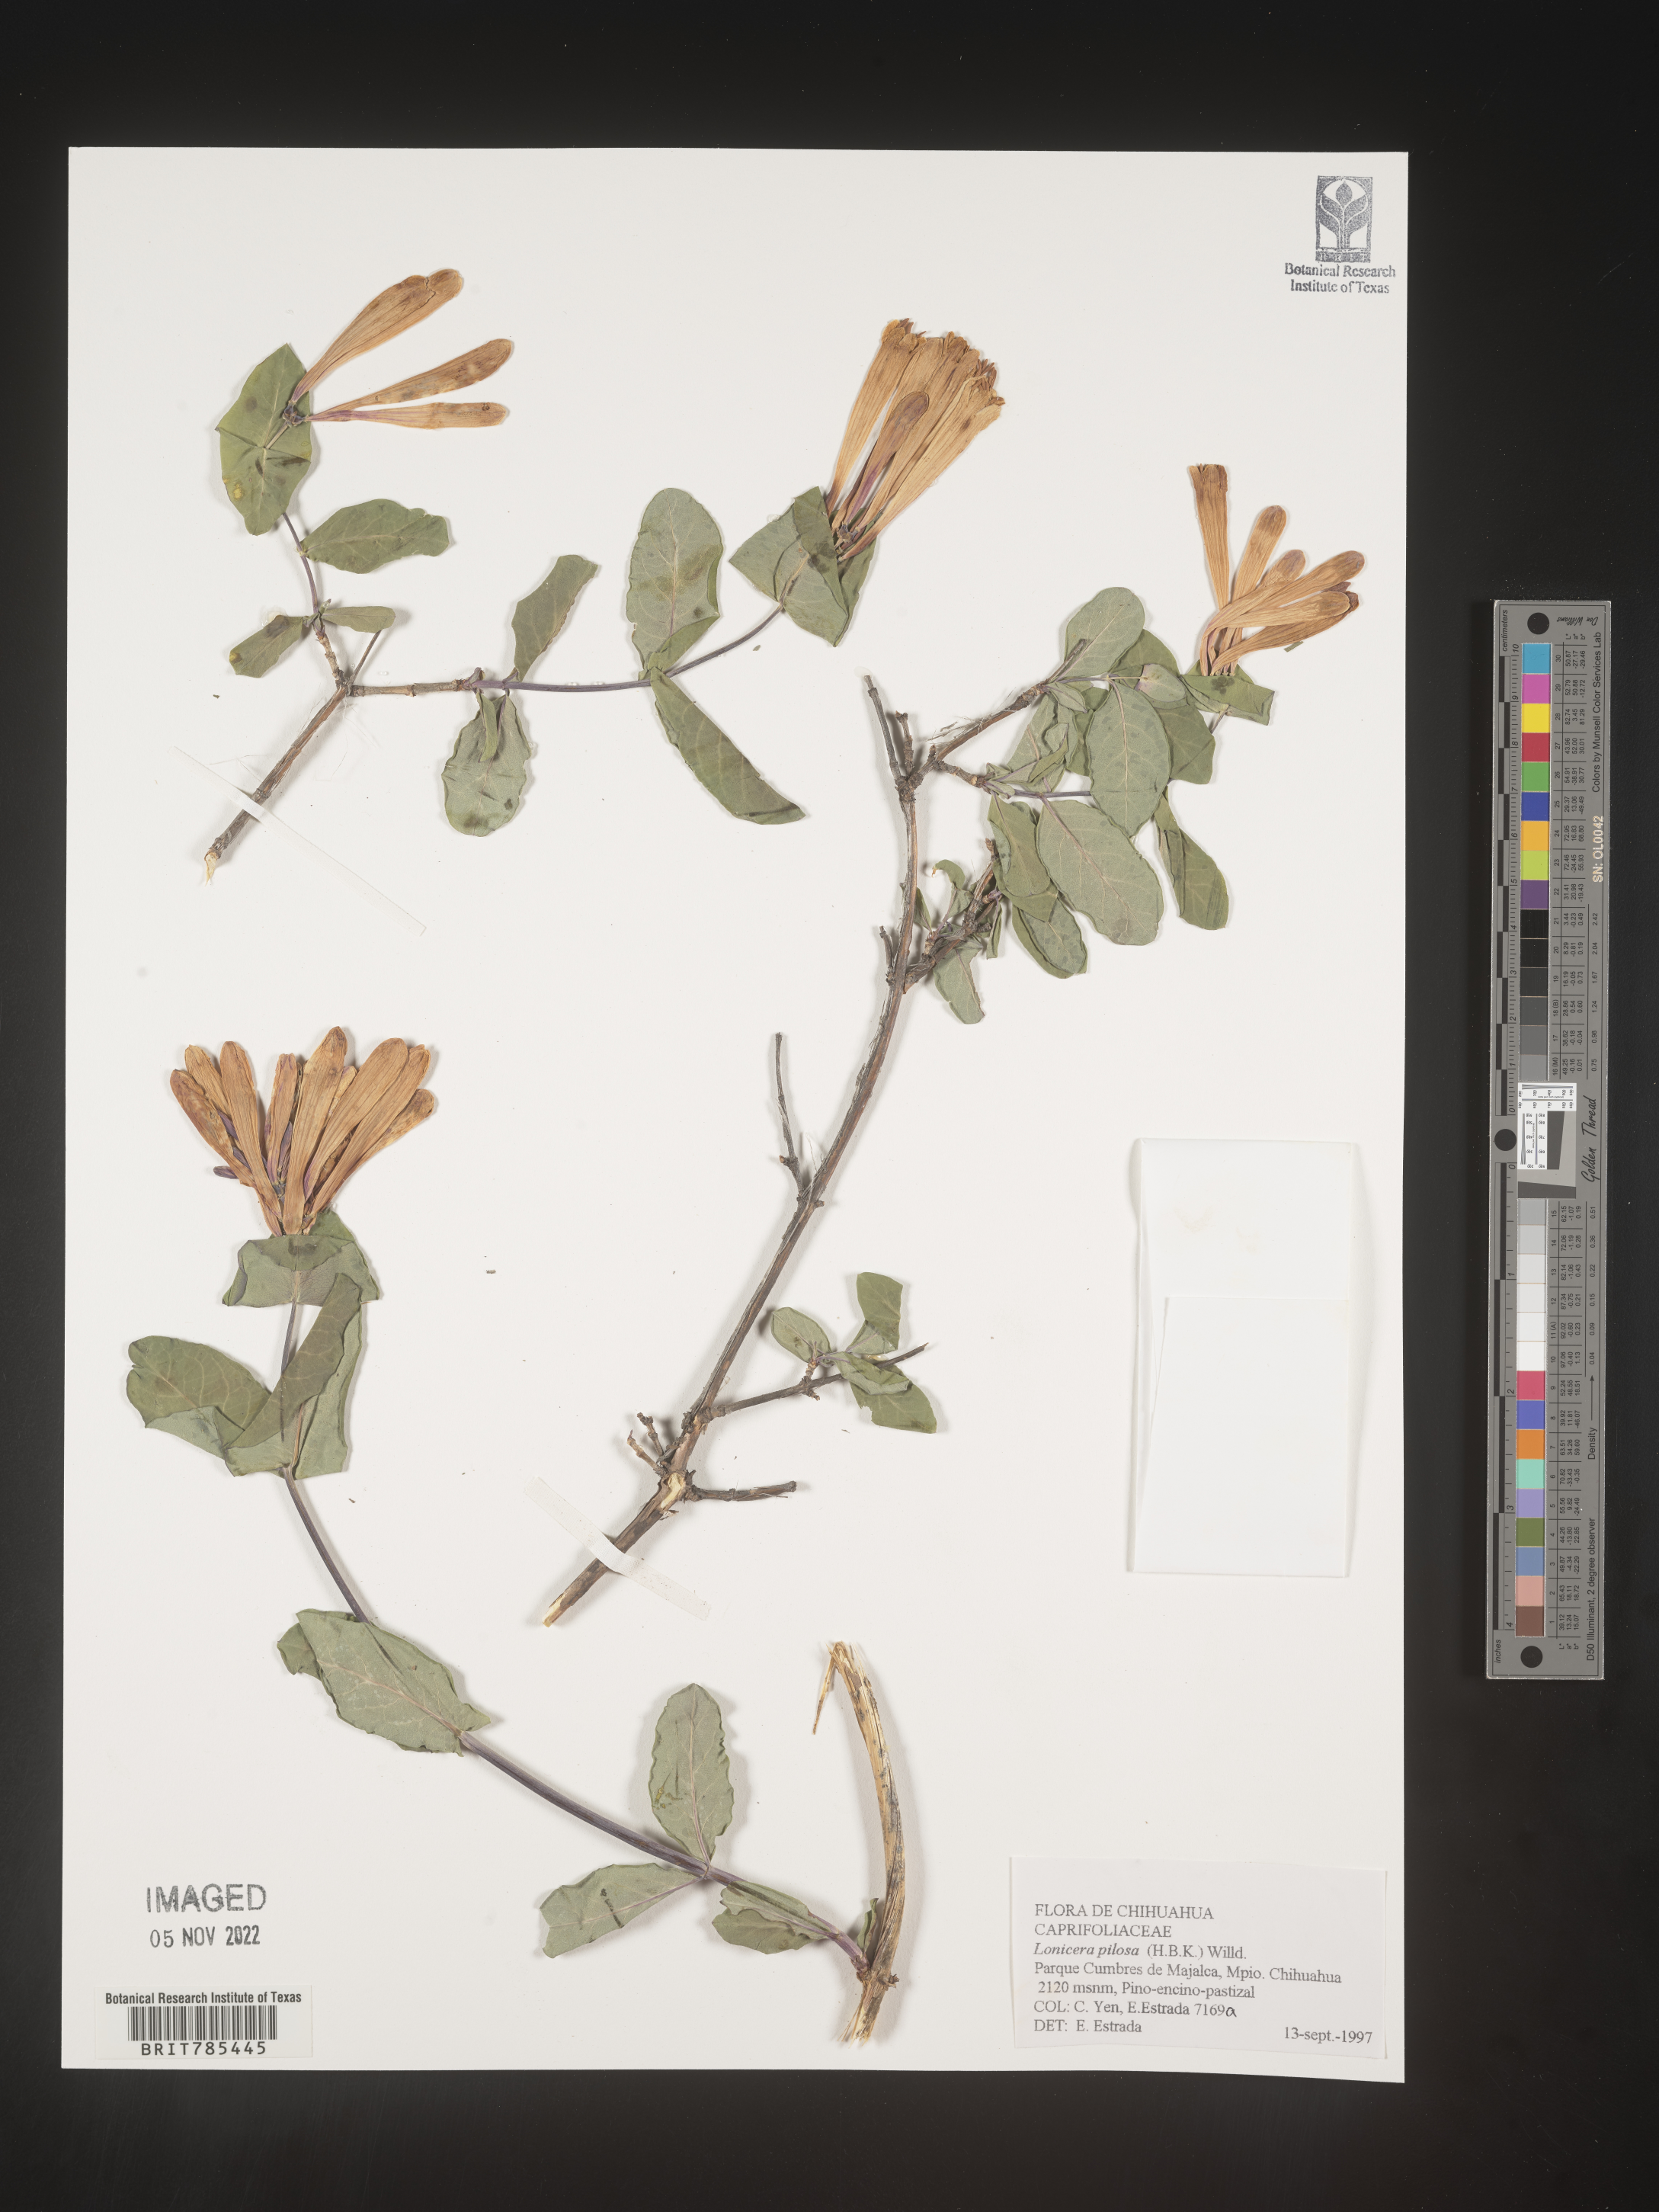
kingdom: Plantae
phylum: Tracheophyta
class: Magnoliopsida
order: Dipsacales
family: Caprifoliaceae
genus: Lonicera
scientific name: Lonicera
